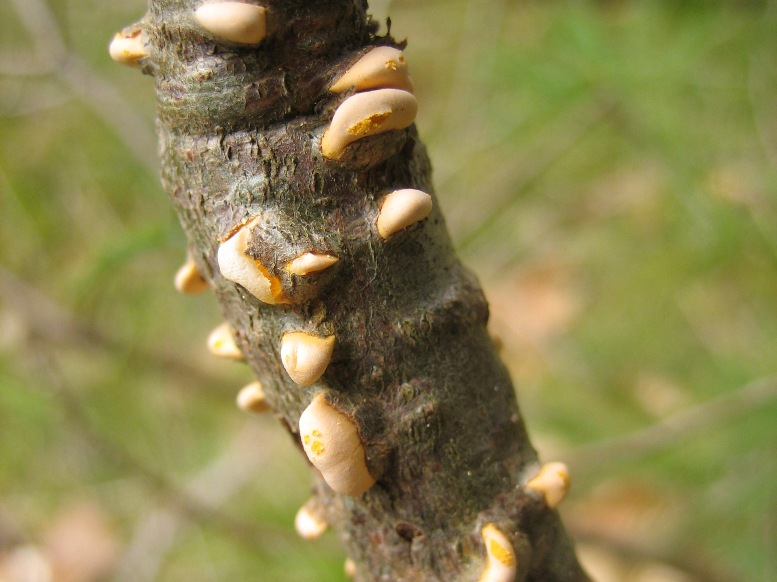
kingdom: Fungi
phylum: Basidiomycota
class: Pucciniomycetes
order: Pucciniales
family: Cronartiaceae
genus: Cronartium
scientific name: Cronartium ribicola
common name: solbær-filtrust
